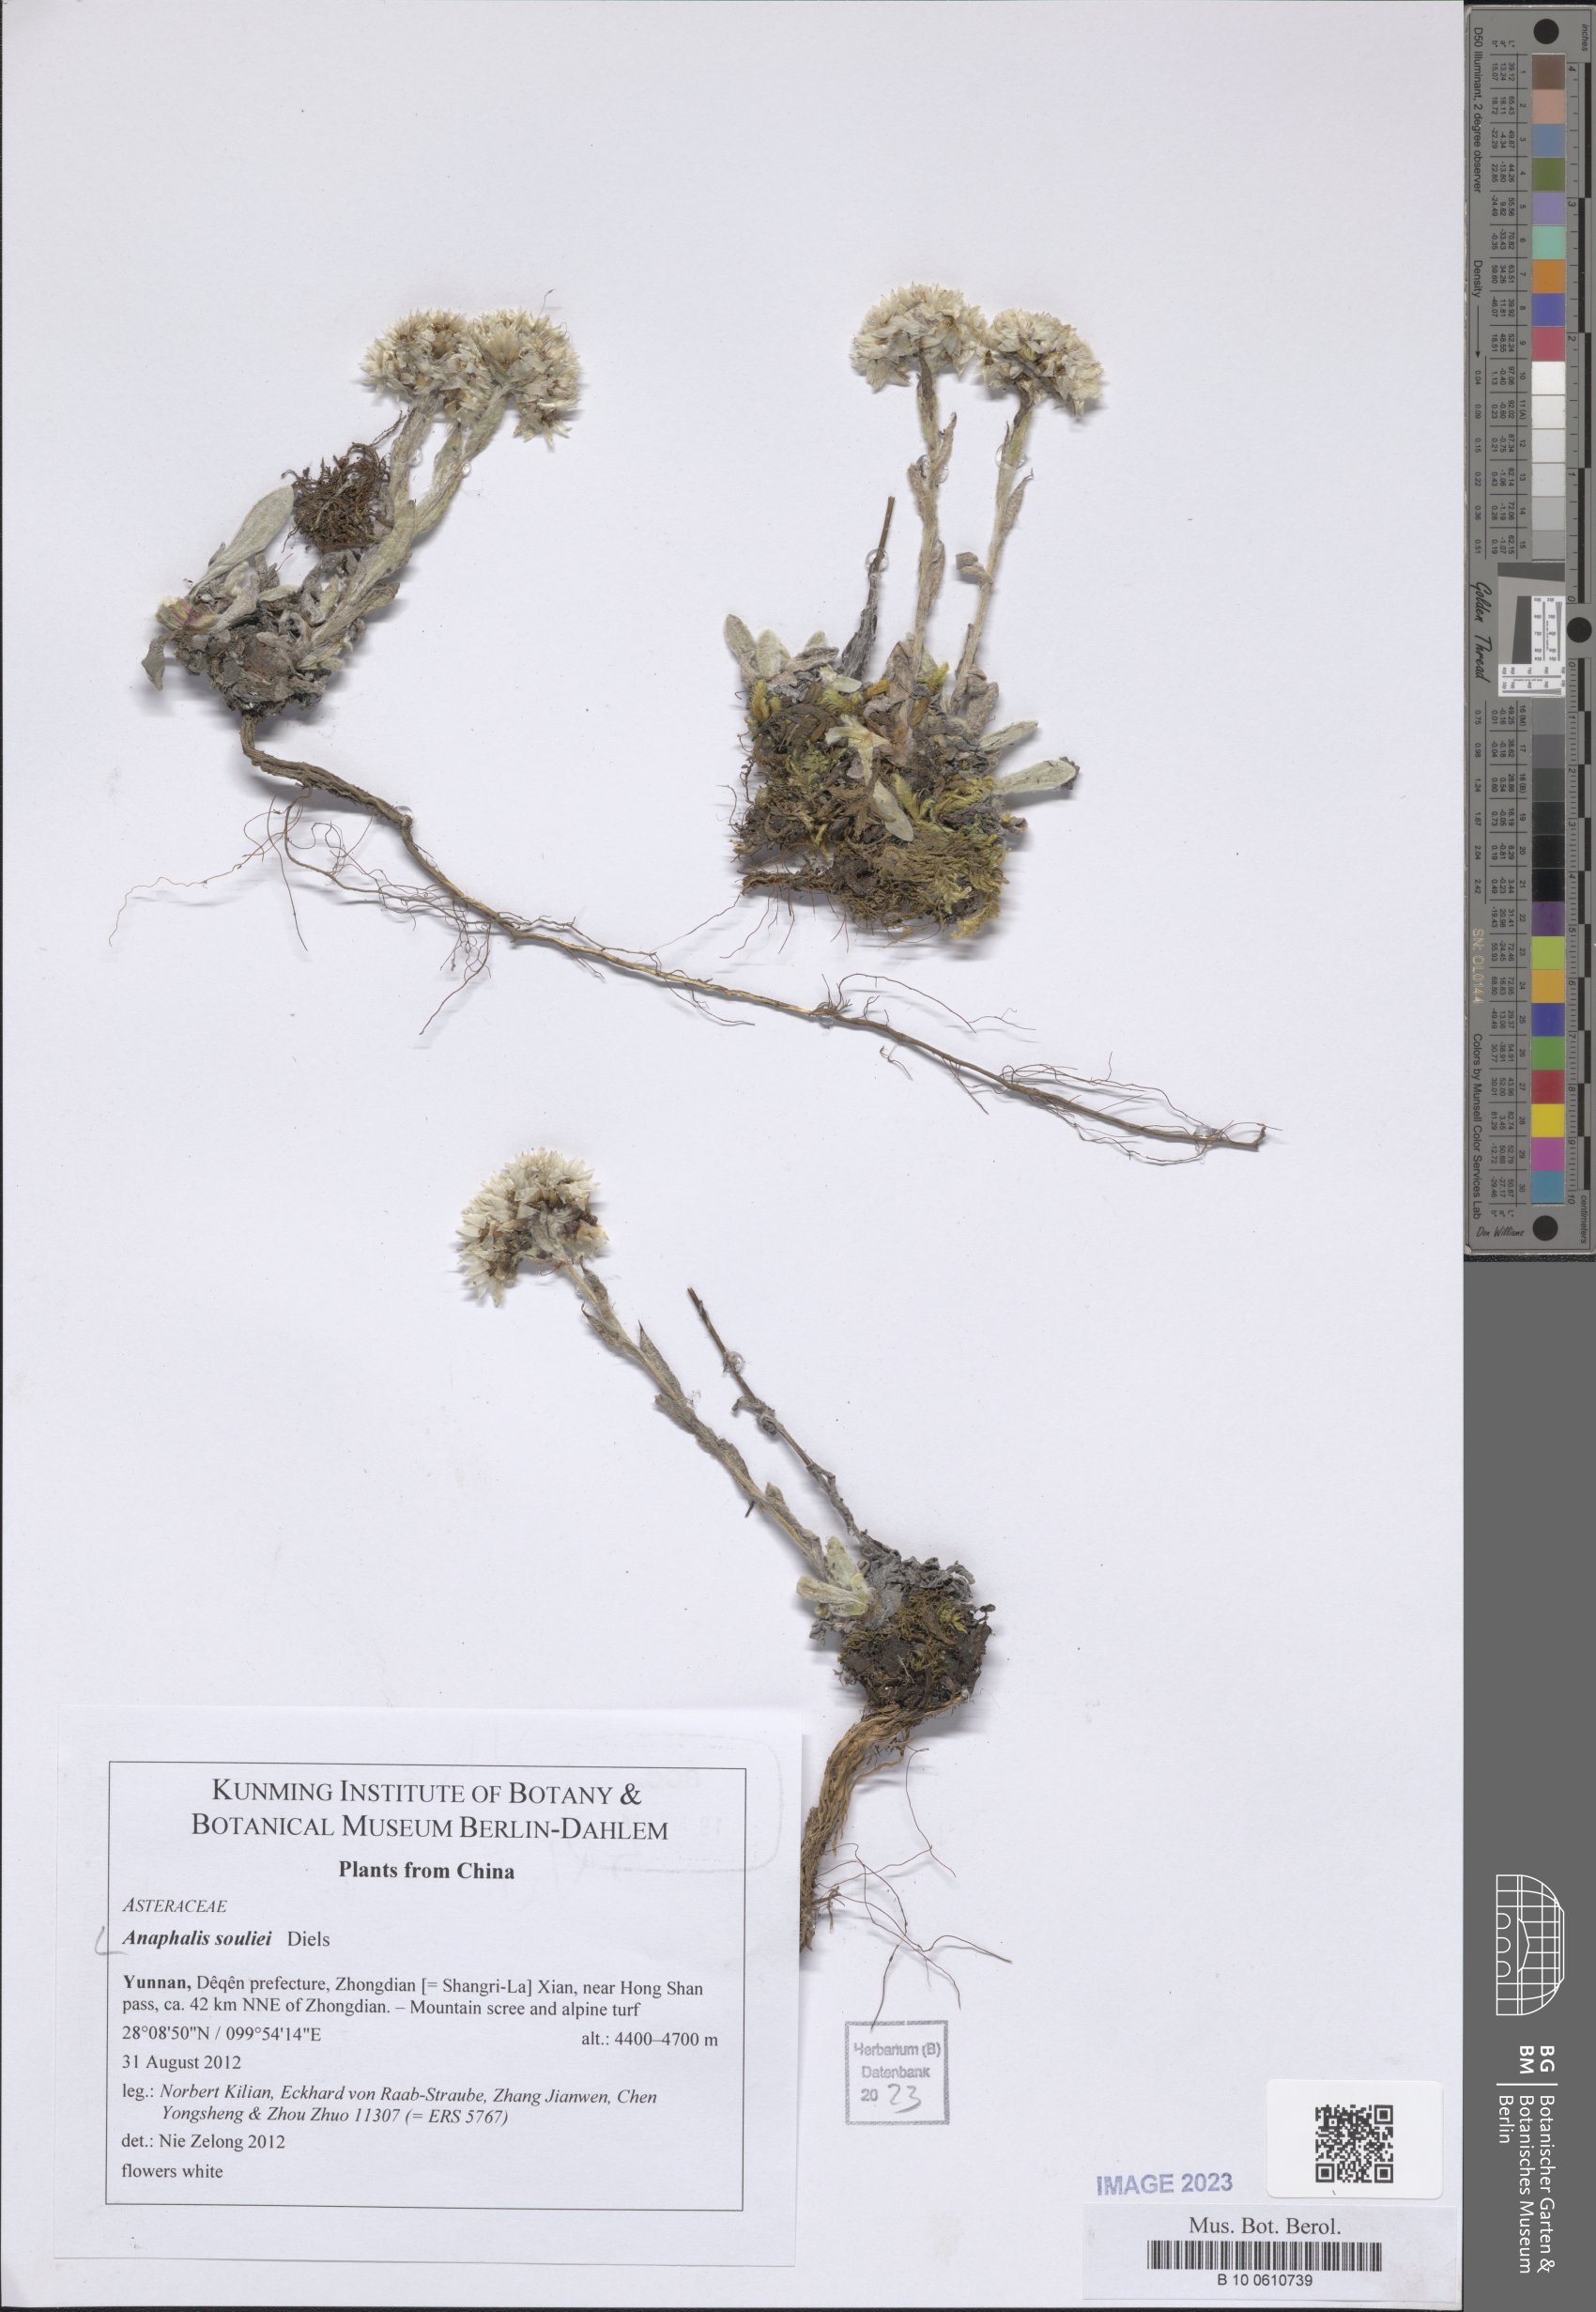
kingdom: Plantae
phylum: Tracheophyta
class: Magnoliopsida
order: Asterales
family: Asteraceae
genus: Anaphalis
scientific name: Anaphalis souliei
